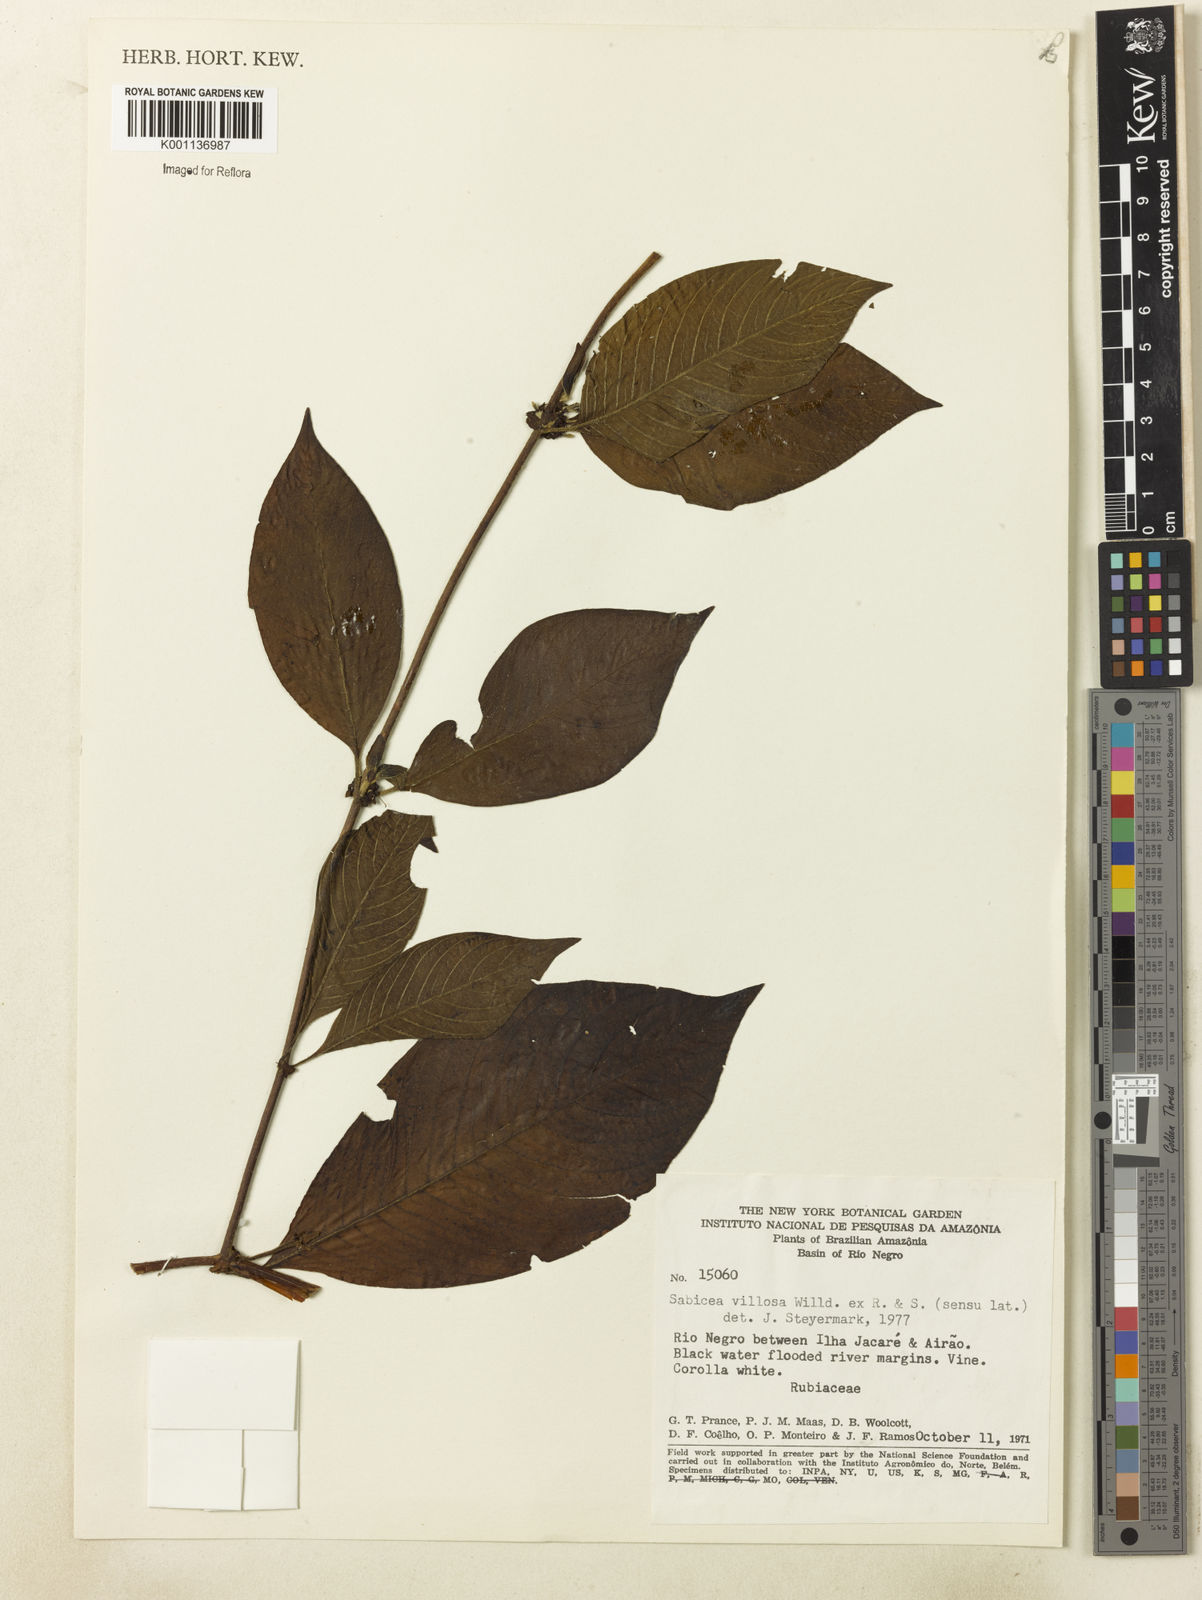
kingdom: Plantae
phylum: Tracheophyta
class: Magnoliopsida
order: Gentianales
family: Rubiaceae
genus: Sabicea
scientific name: Sabicea villosa
